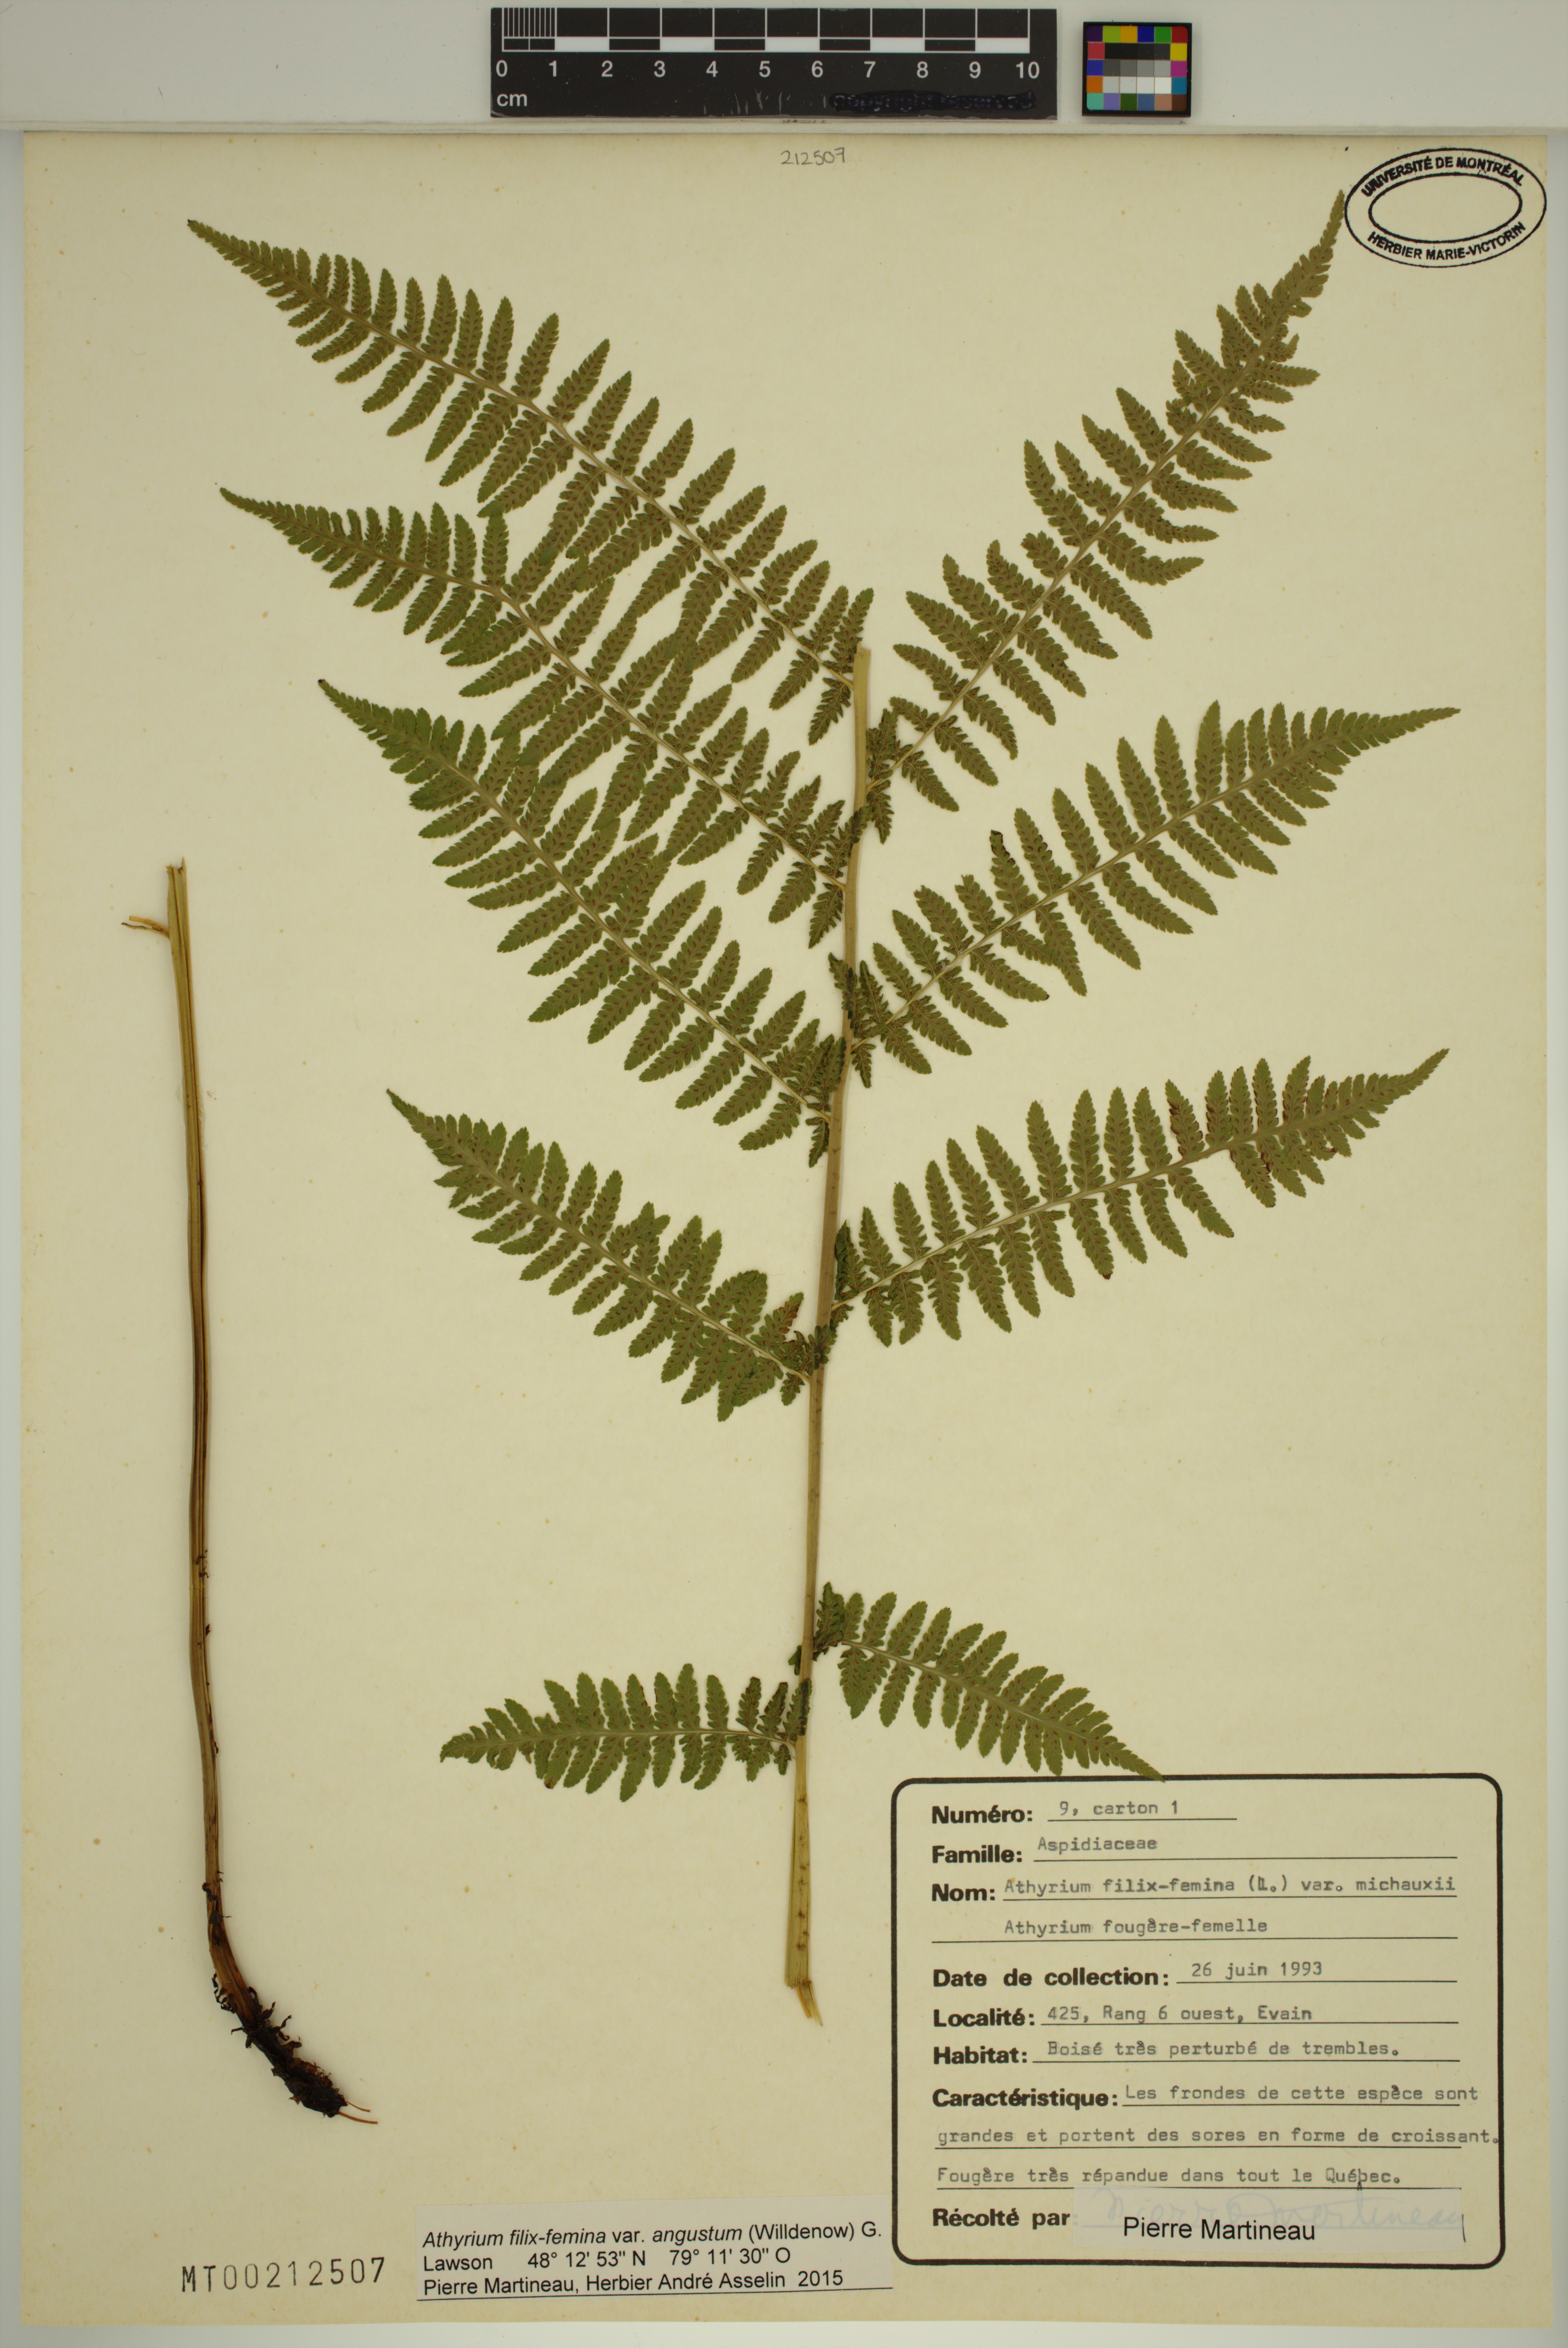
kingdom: Plantae
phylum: Tracheophyta
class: Polypodiopsida
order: Polypodiales
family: Athyriaceae
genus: Athyrium
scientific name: Athyrium angustum
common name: Northern lady fern
